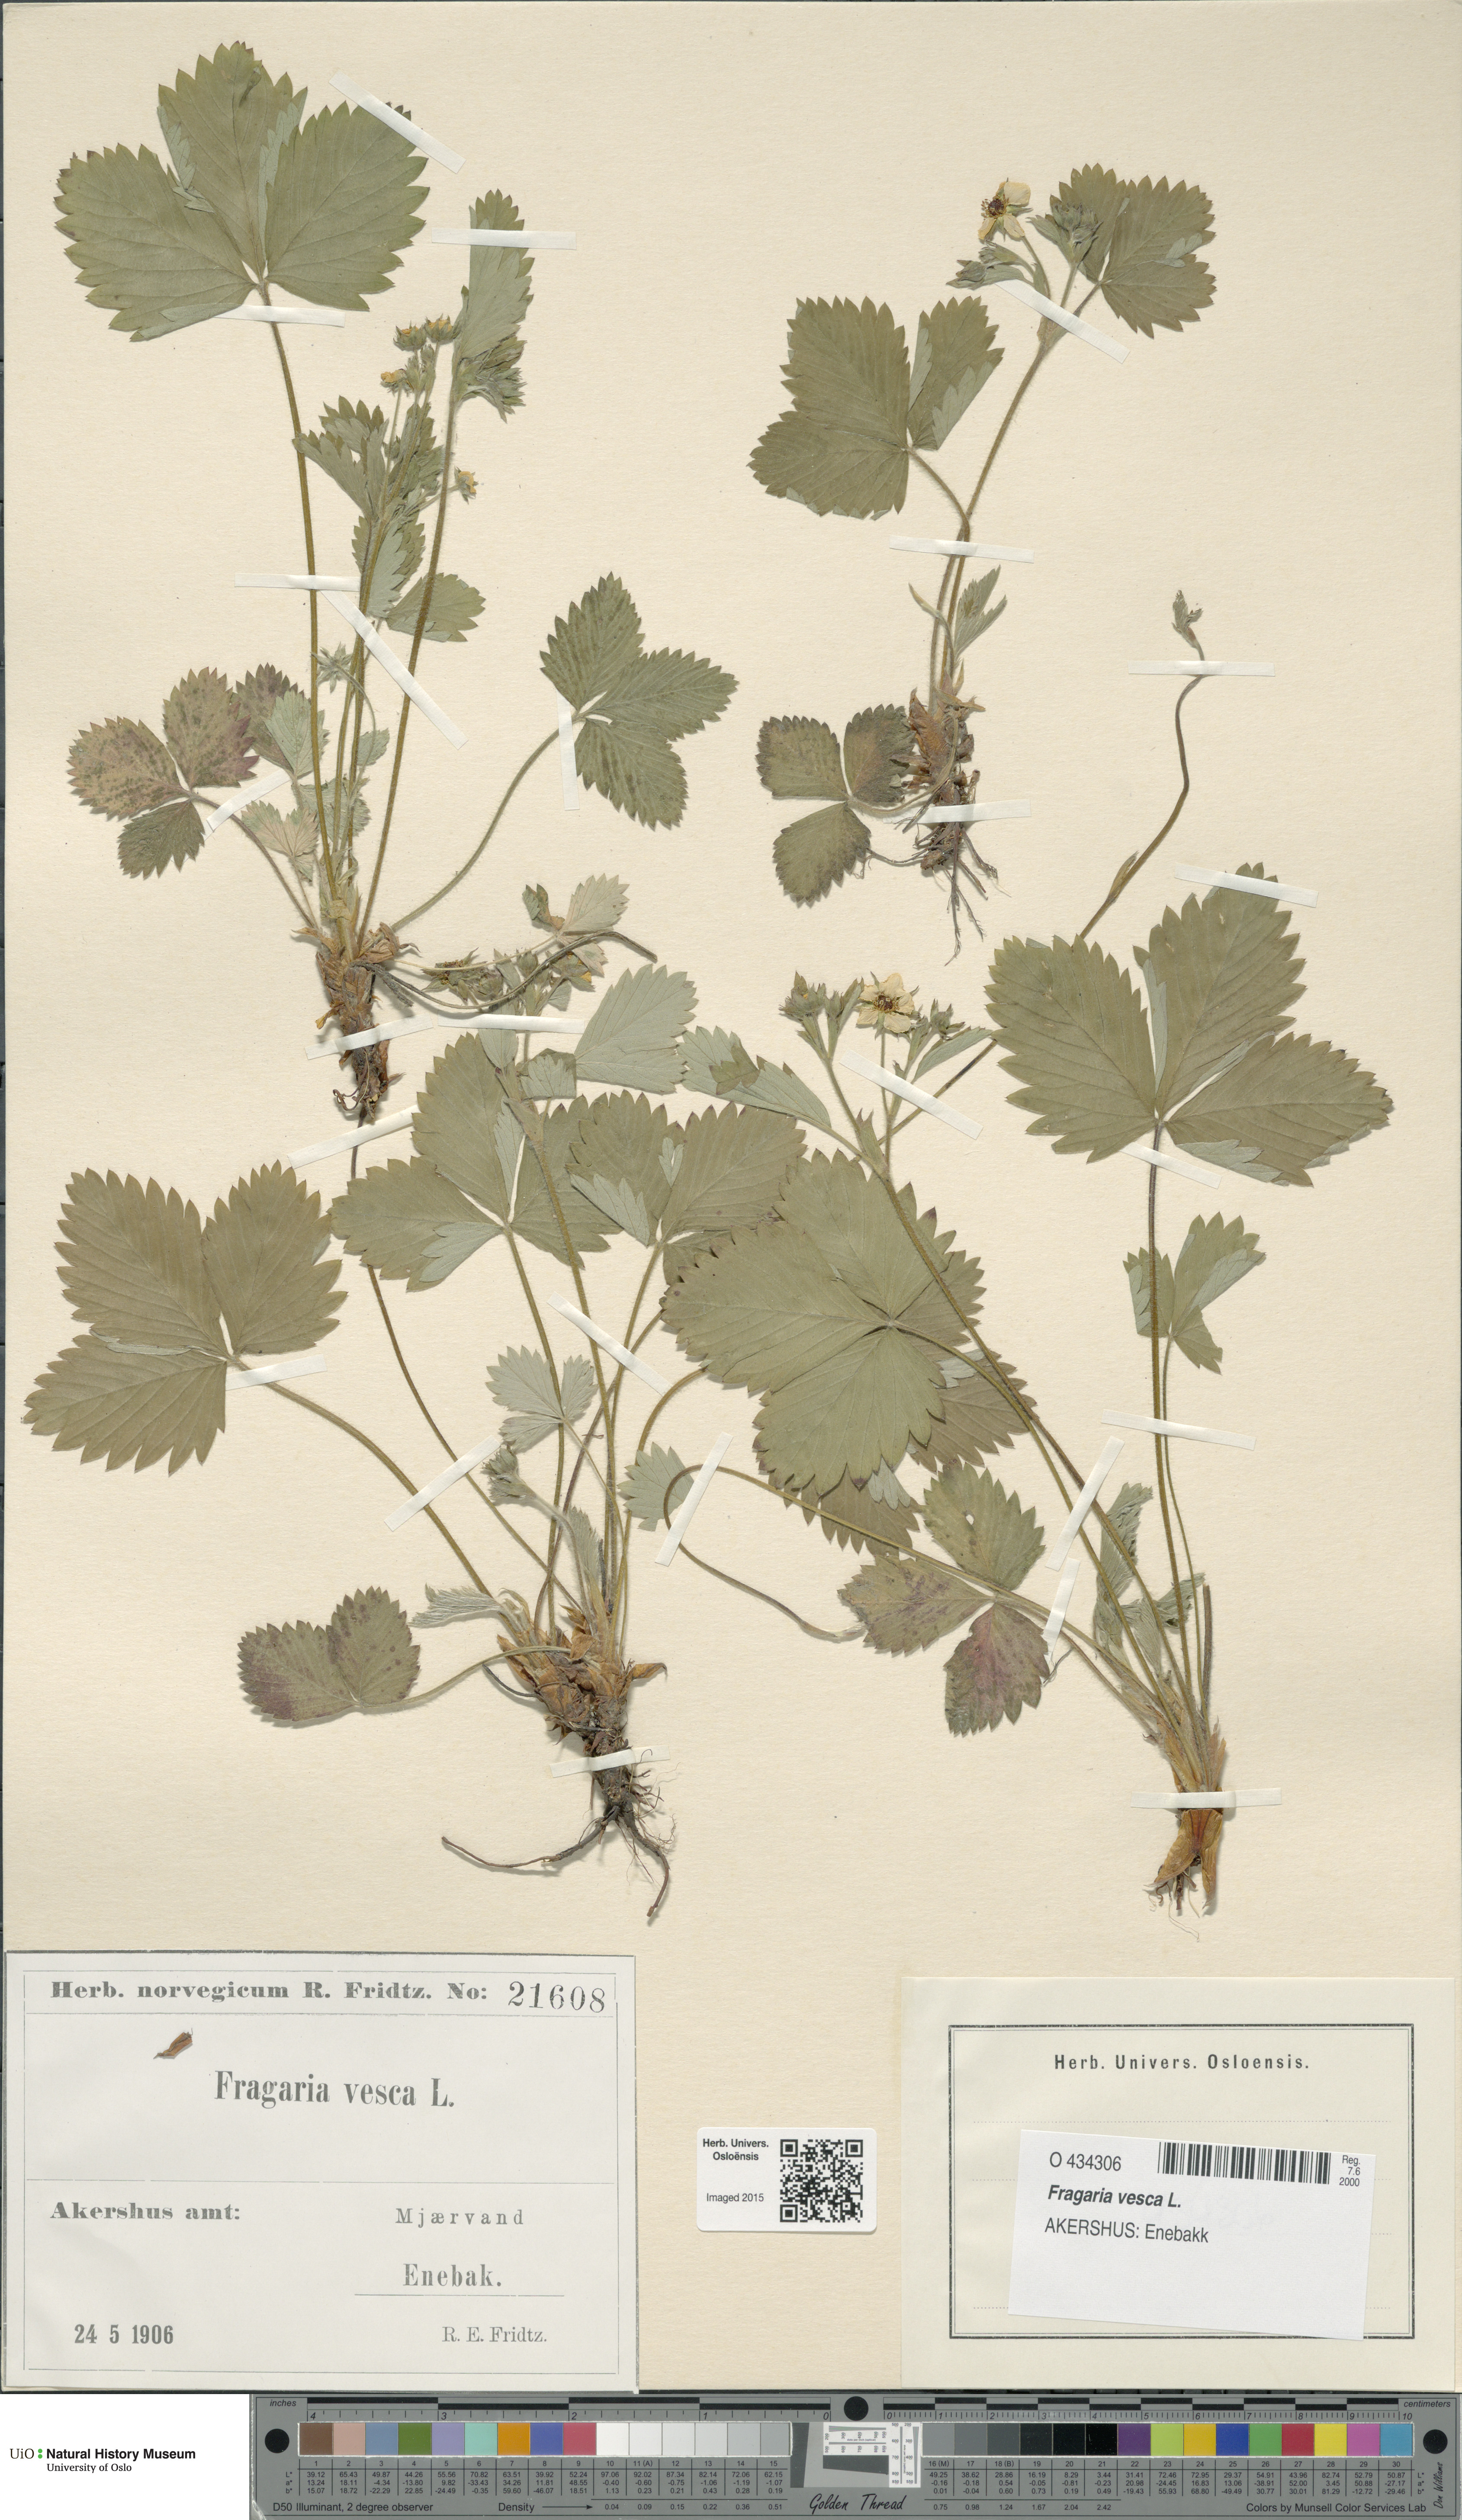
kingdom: Plantae
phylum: Tracheophyta
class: Magnoliopsida
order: Rosales
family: Rosaceae
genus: Fragaria
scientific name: Fragaria vesca
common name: Wild strawberry
